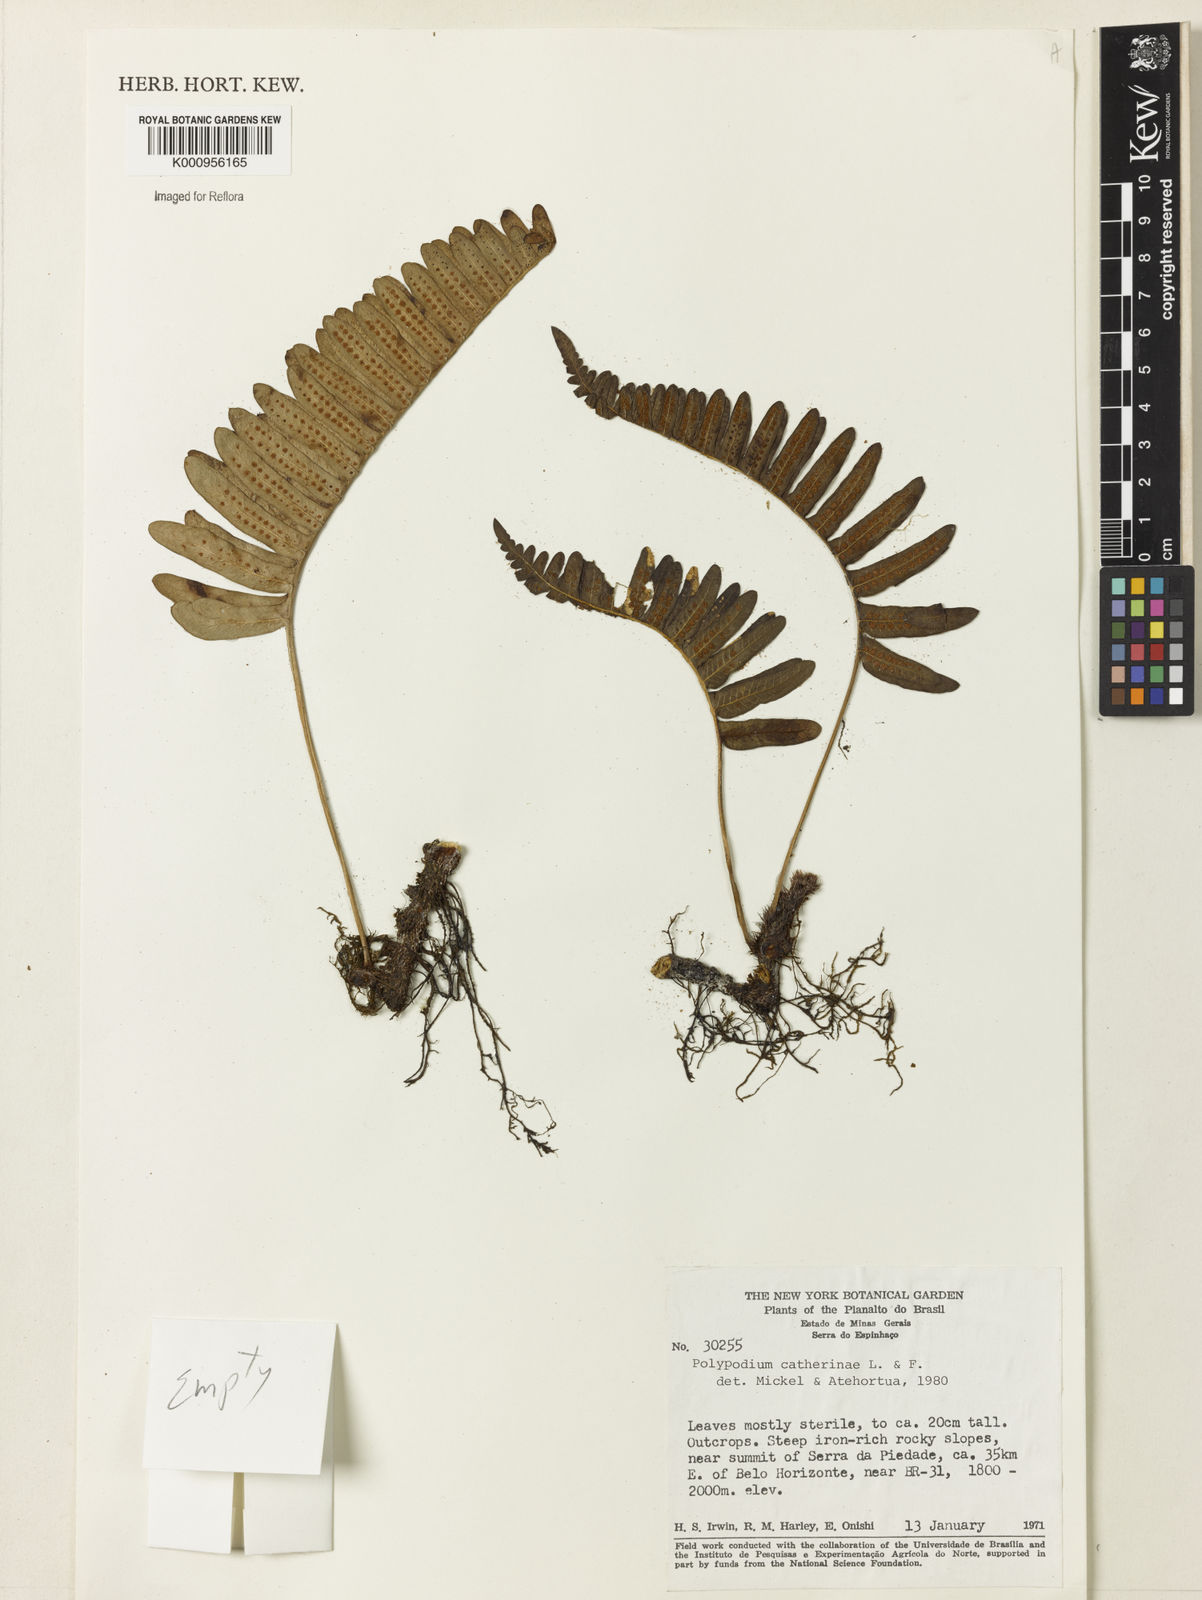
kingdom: Plantae
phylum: Tracheophyta
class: Polypodiopsida
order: Polypodiales
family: Polypodiaceae
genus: Serpocaulon
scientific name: Serpocaulon catharinae
